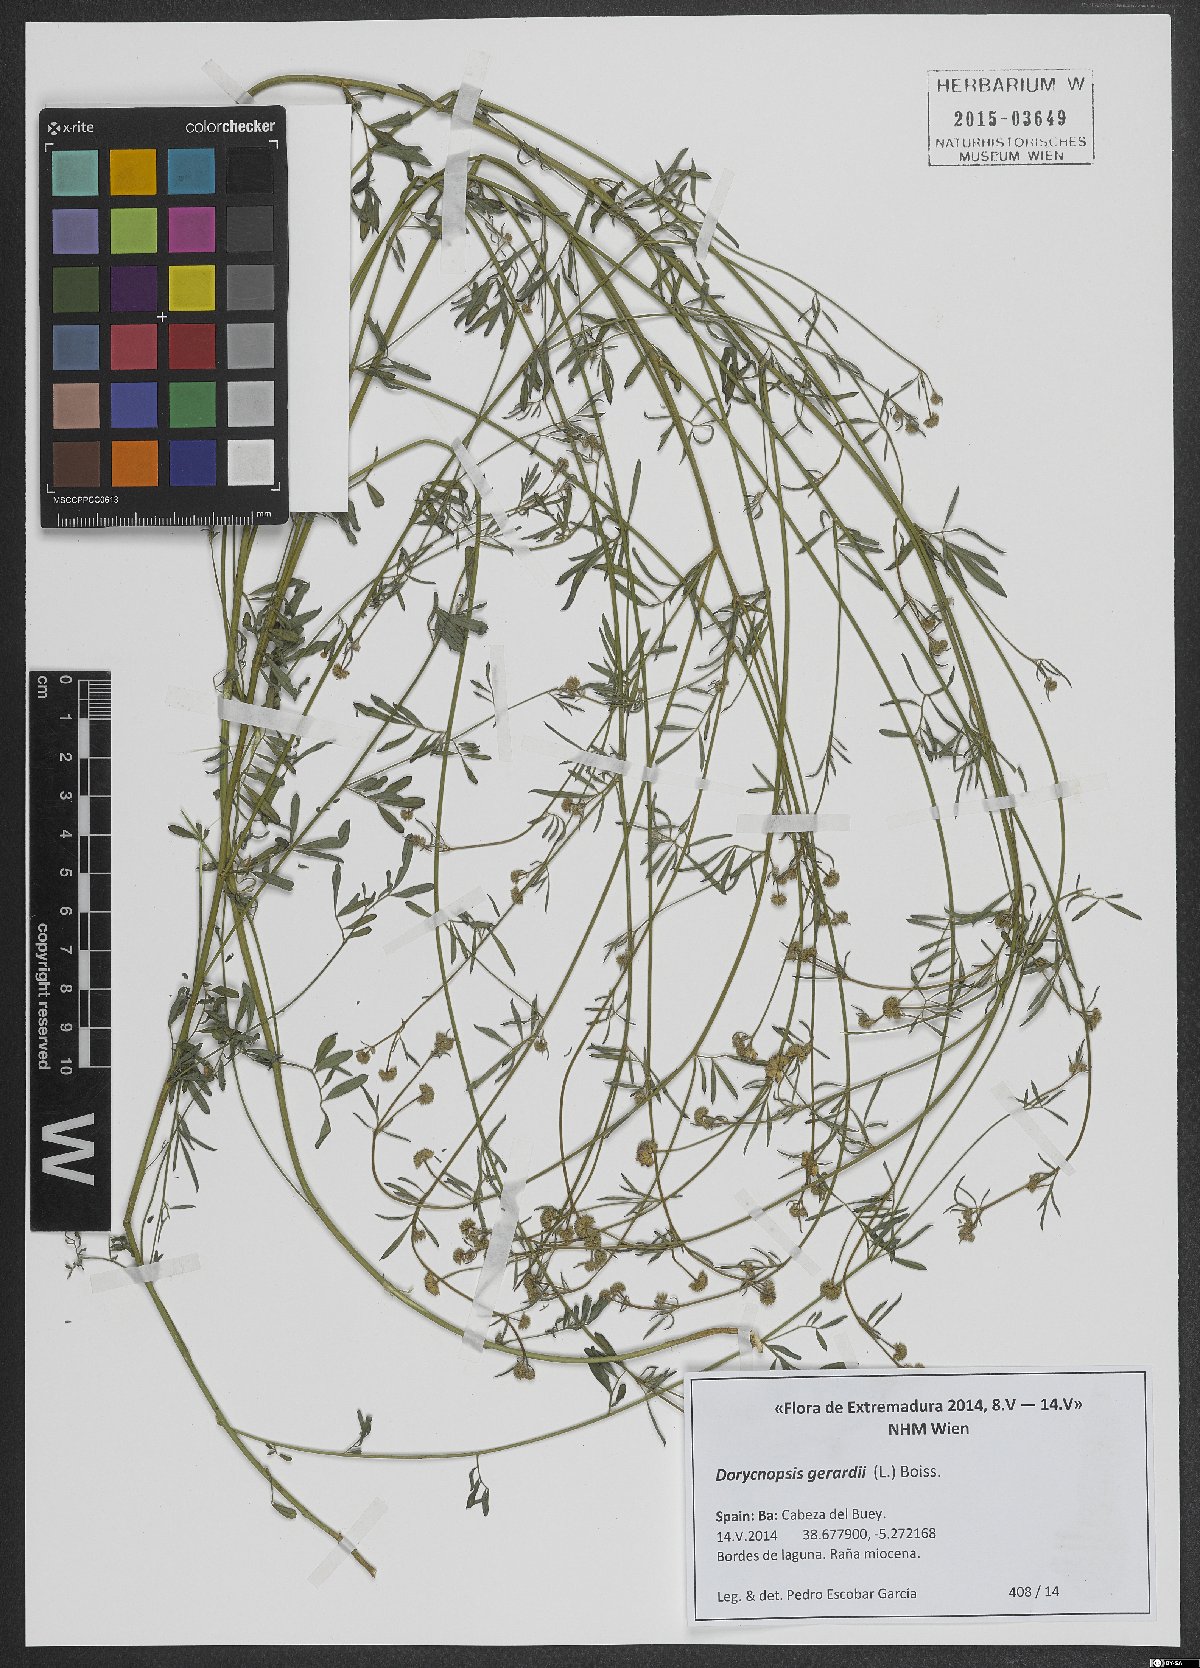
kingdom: Plantae
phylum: Tracheophyta
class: Magnoliopsida
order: Fabales
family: Fabaceae
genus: Dorycnopsis
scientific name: Dorycnopsis gerardi
